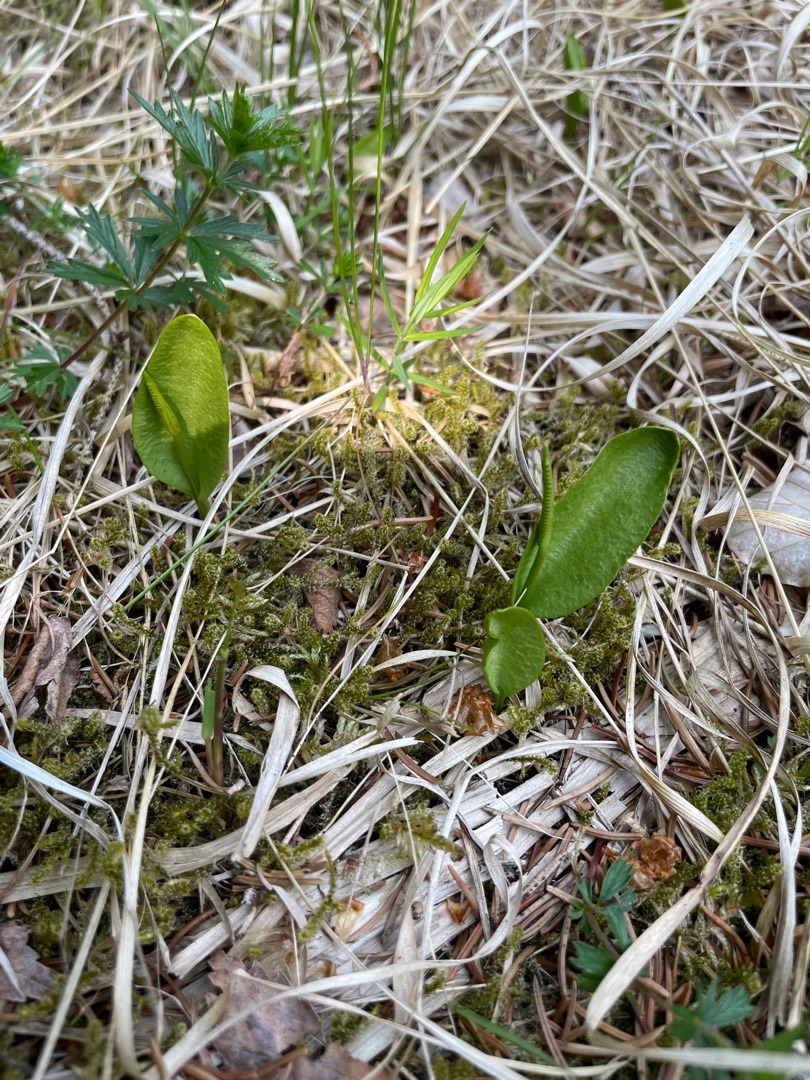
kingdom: Plantae
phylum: Tracheophyta
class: Polypodiopsida
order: Ophioglossales
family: Ophioglossaceae
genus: Ophioglossum
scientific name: Ophioglossum vulgatum
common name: Slangetunge
